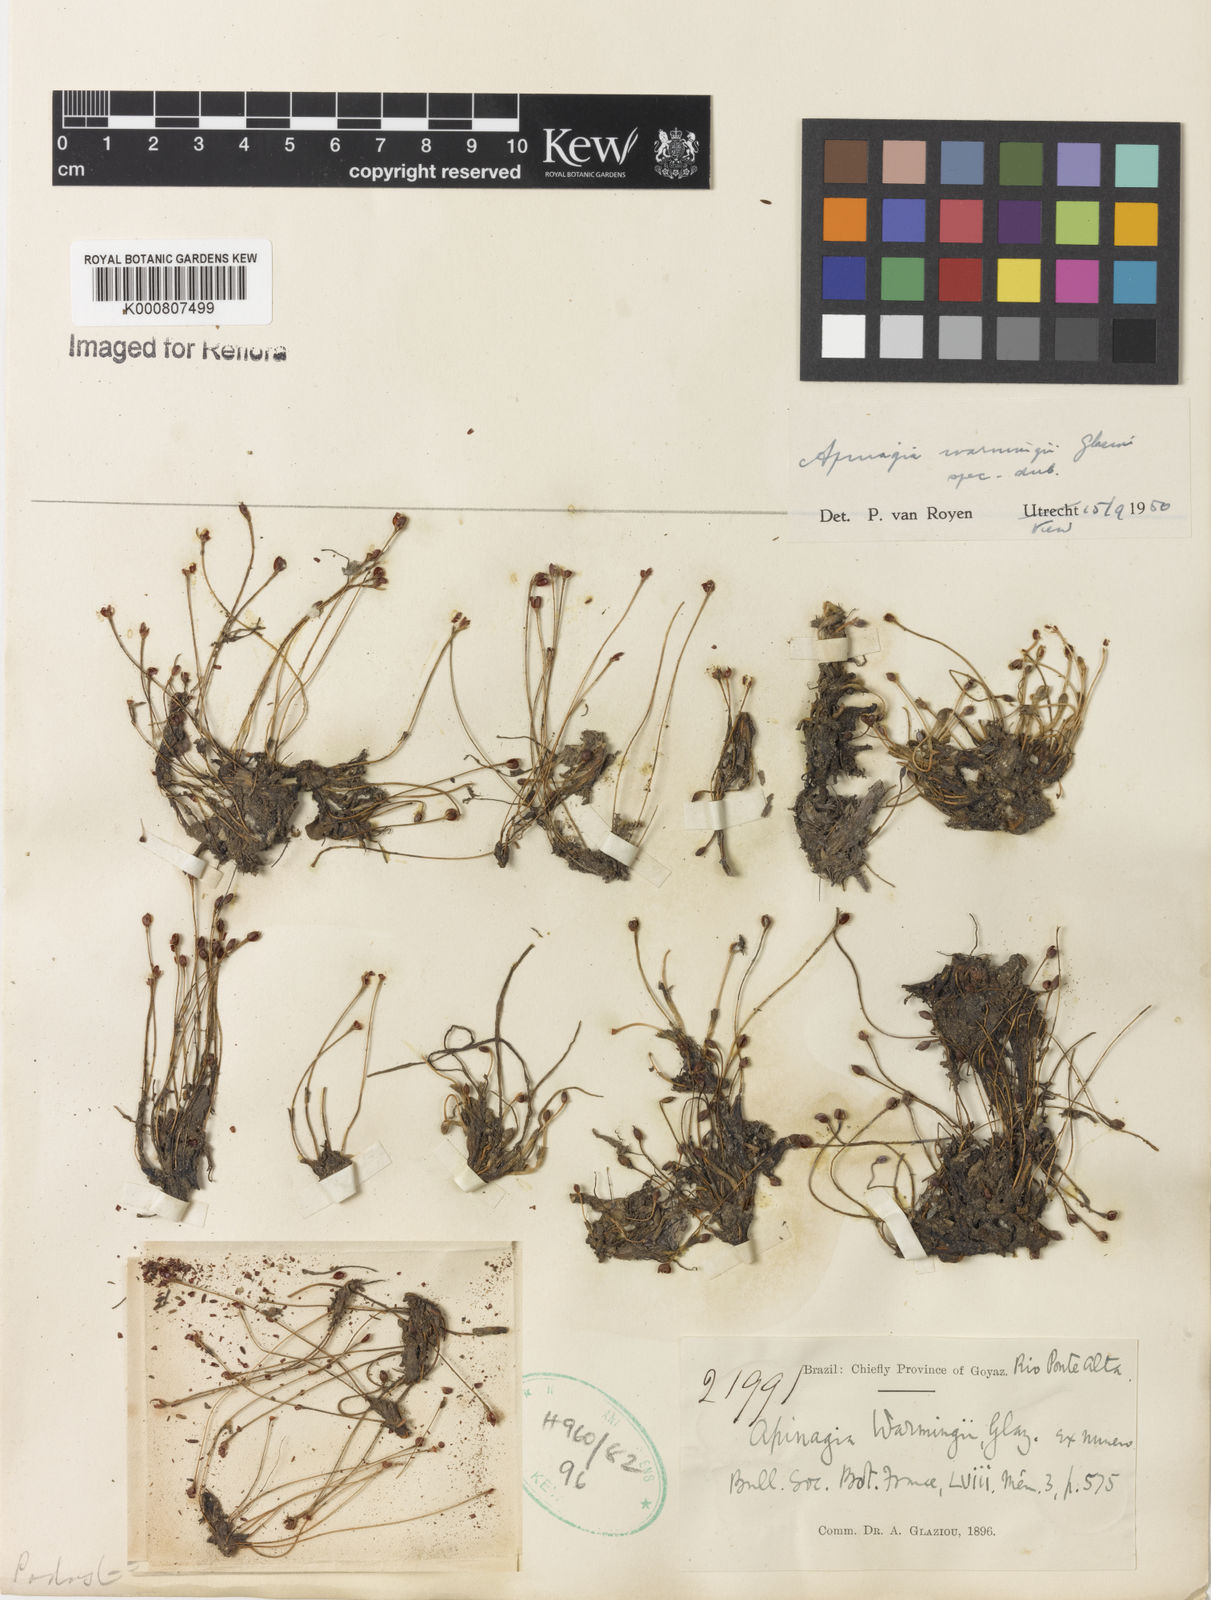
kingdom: Plantae
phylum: Tracheophyta
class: Magnoliopsida
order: Malpighiales
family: Podostemaceae
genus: Apinagia
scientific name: Apinagia
